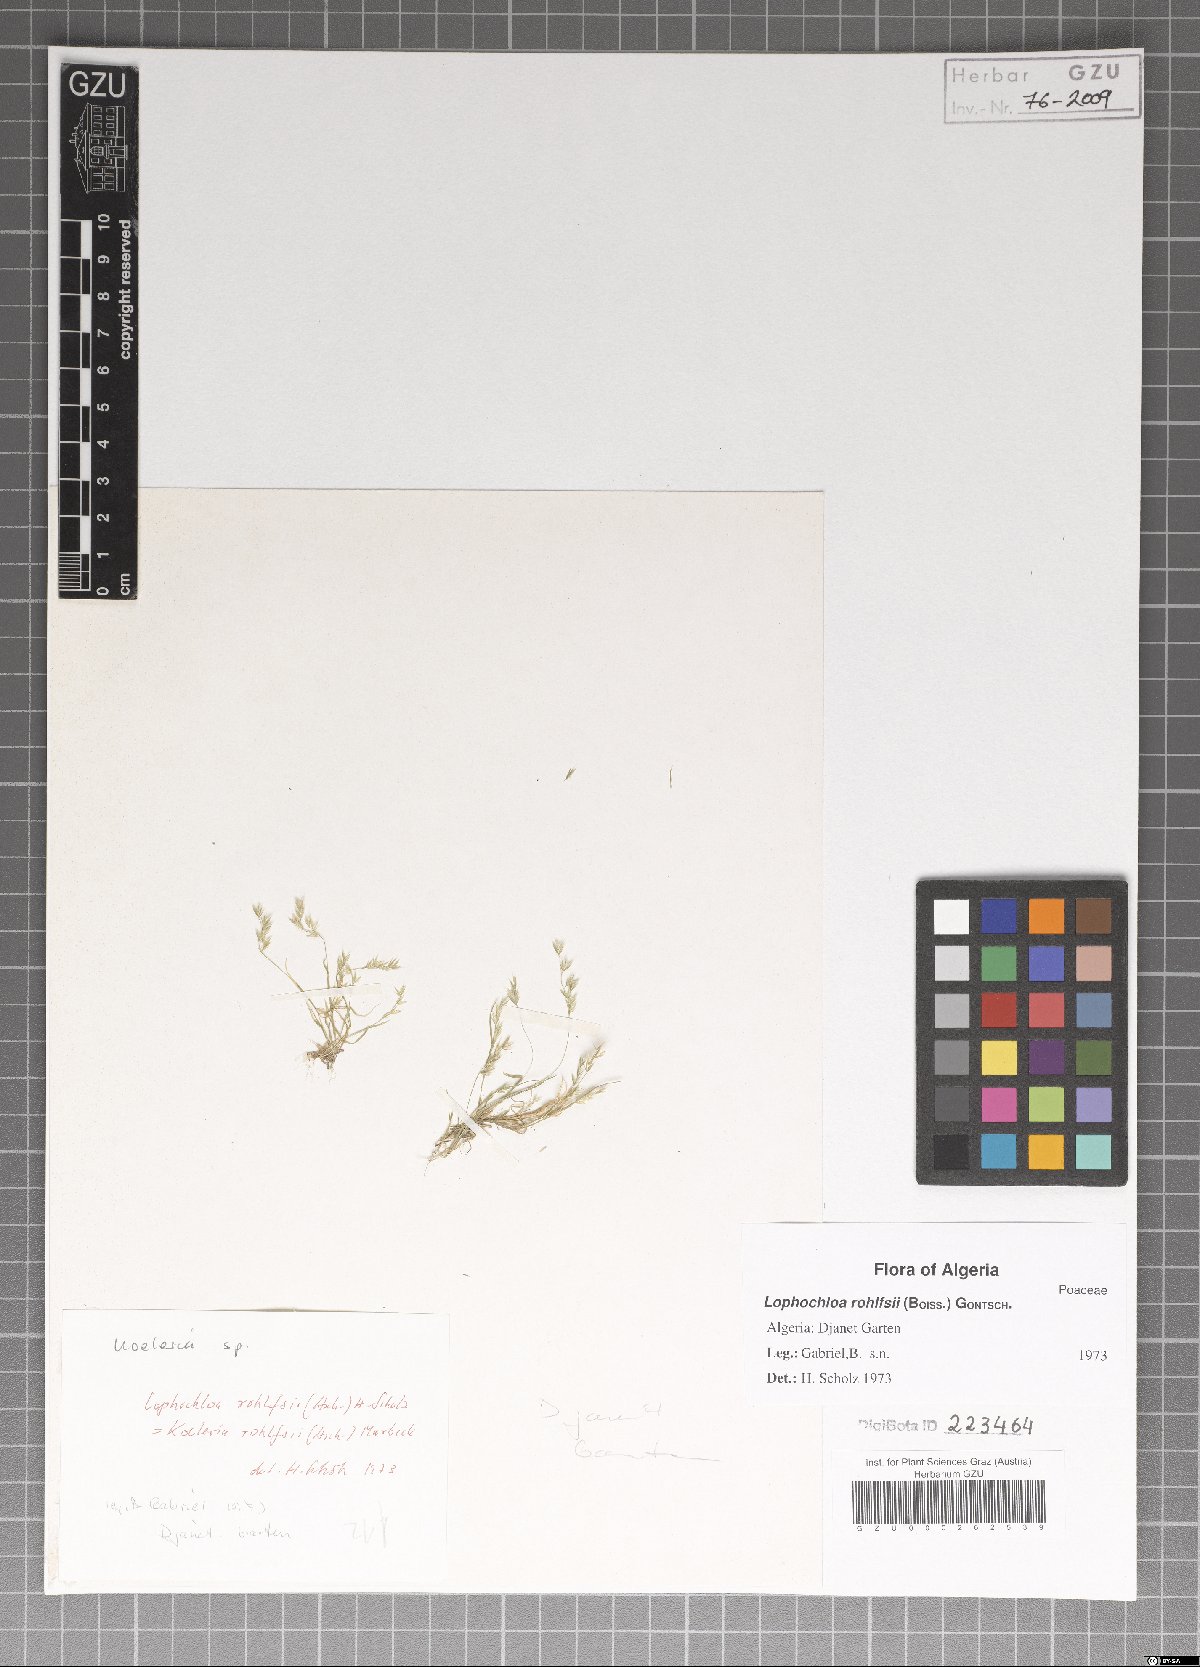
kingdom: Plantae
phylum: Tracheophyta
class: Liliopsida
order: Poales
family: Poaceae
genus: Rostraria
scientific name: Rostraria rohlfsii
